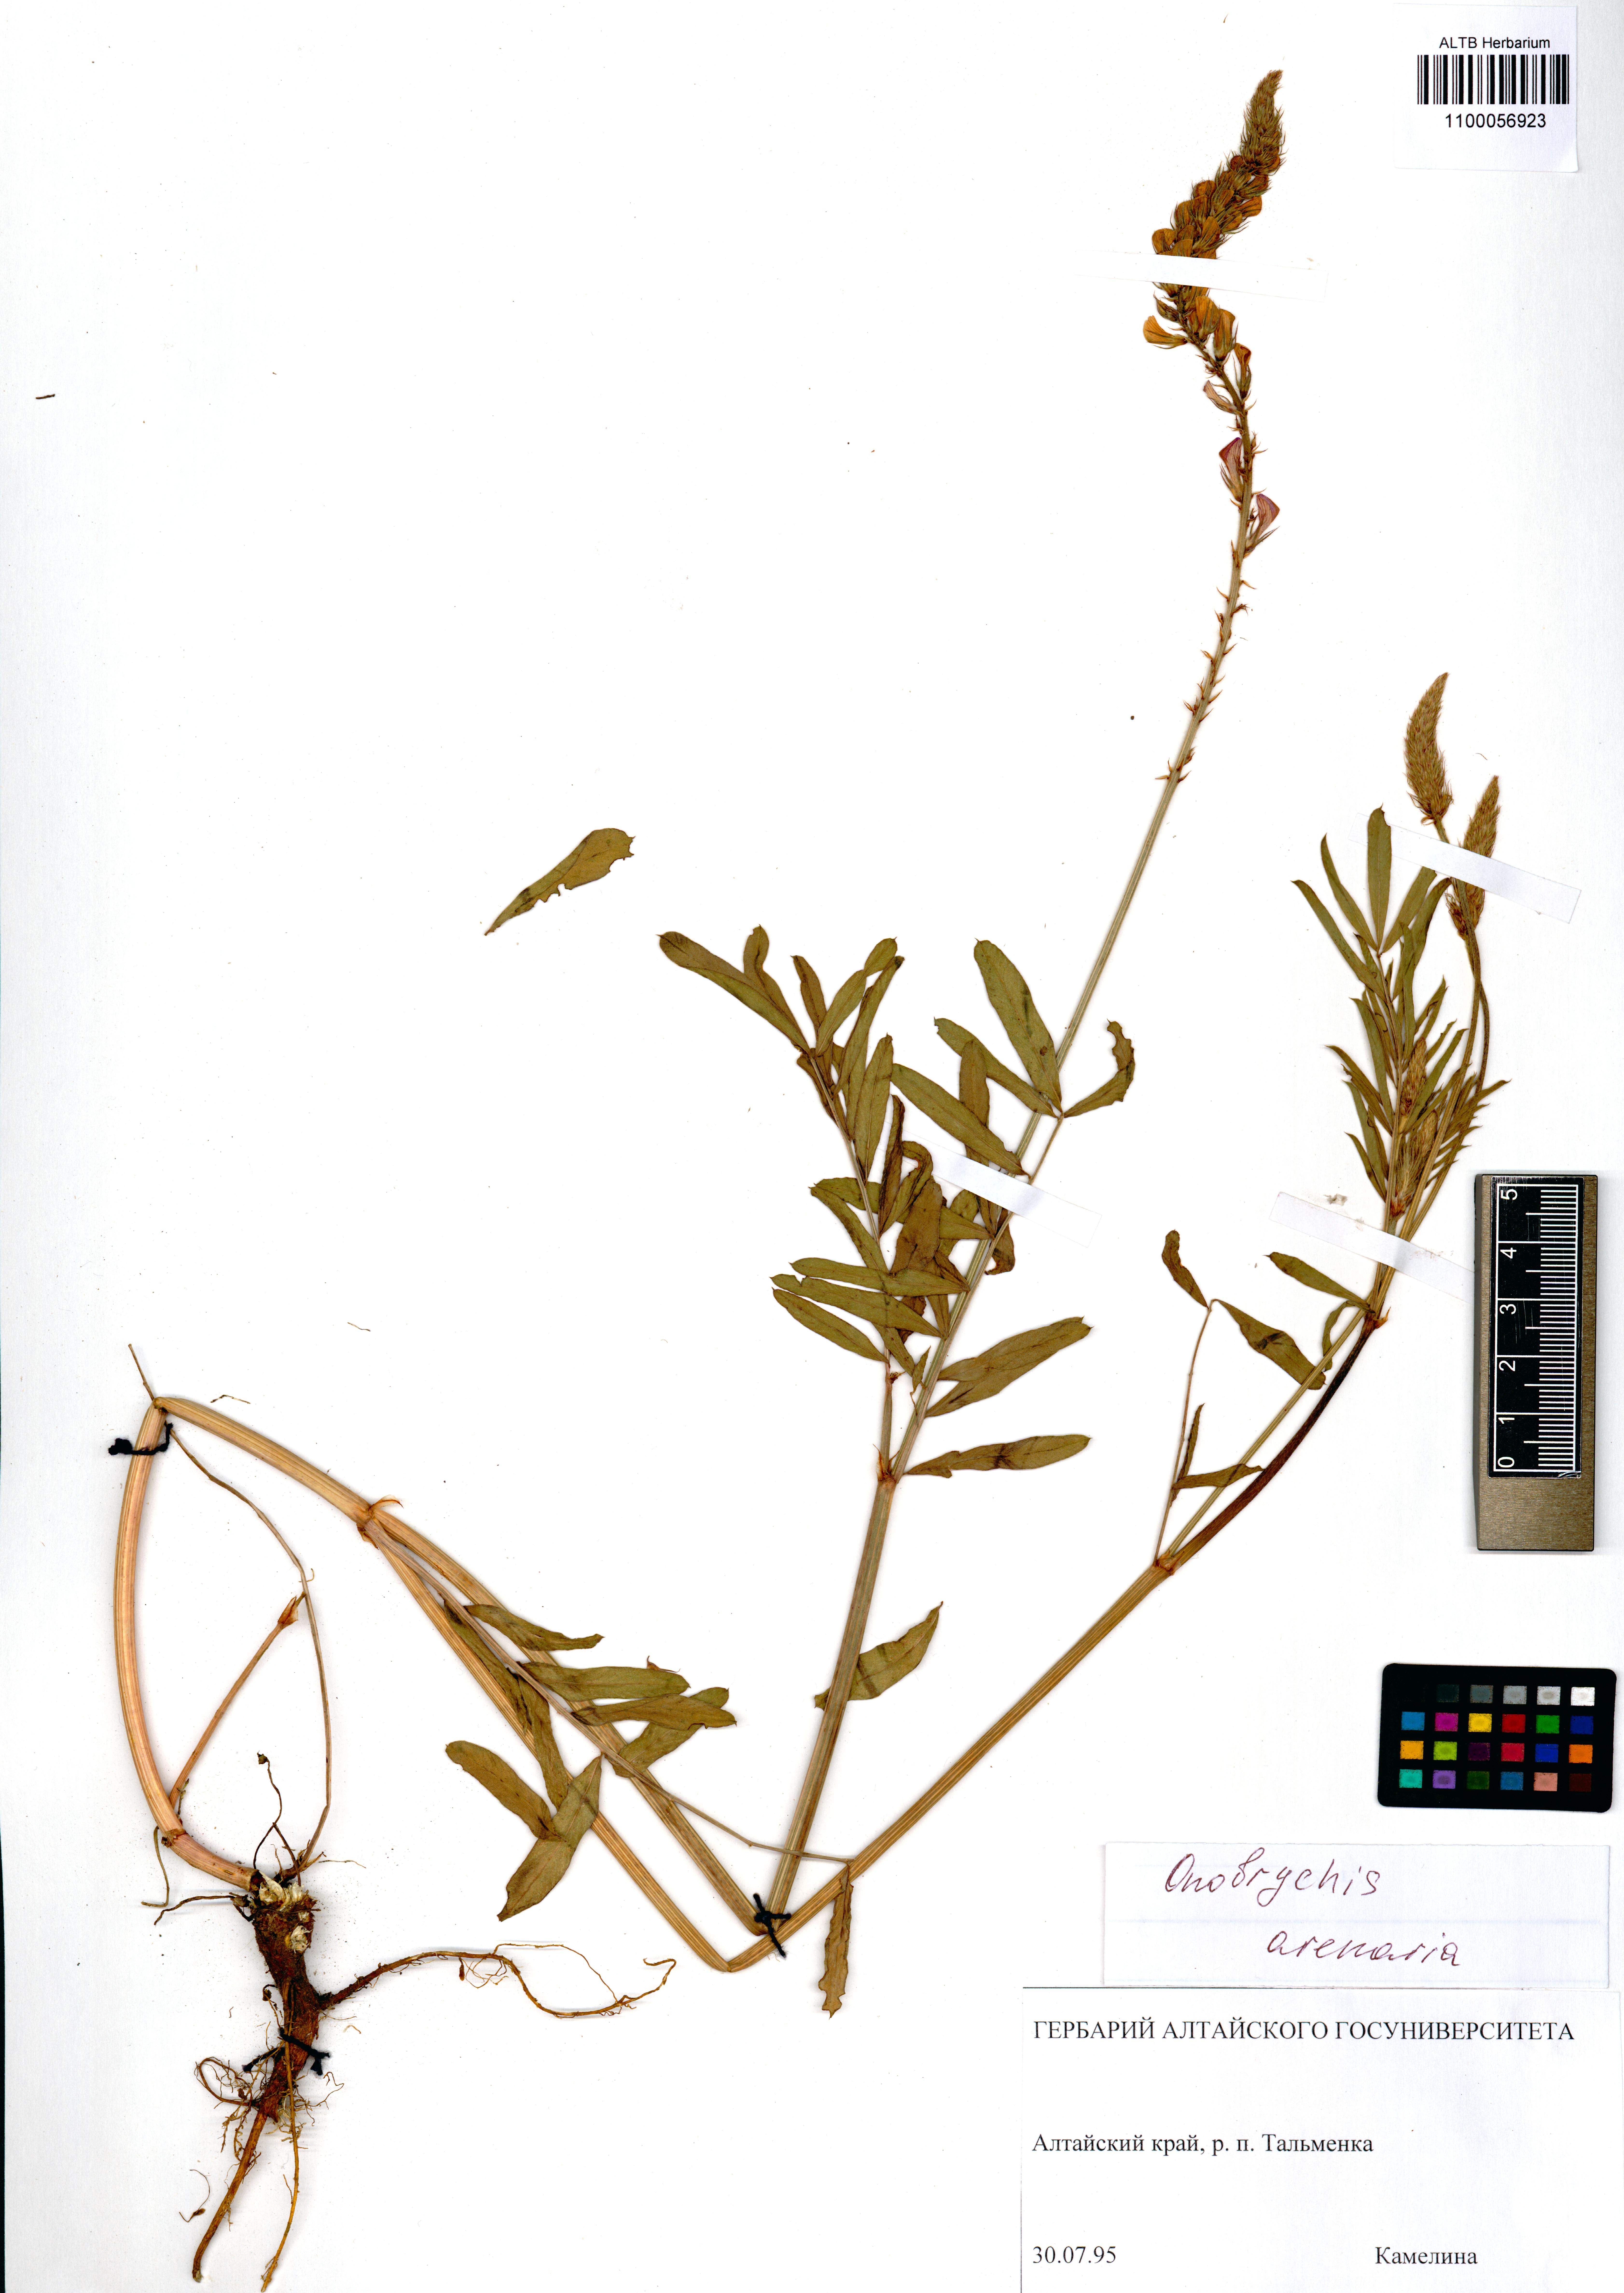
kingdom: Plantae
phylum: Tracheophyta
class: Magnoliopsida
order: Fabales
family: Fabaceae
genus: Onobrychis
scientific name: Onobrychis arenaria
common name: Sand esparcet
